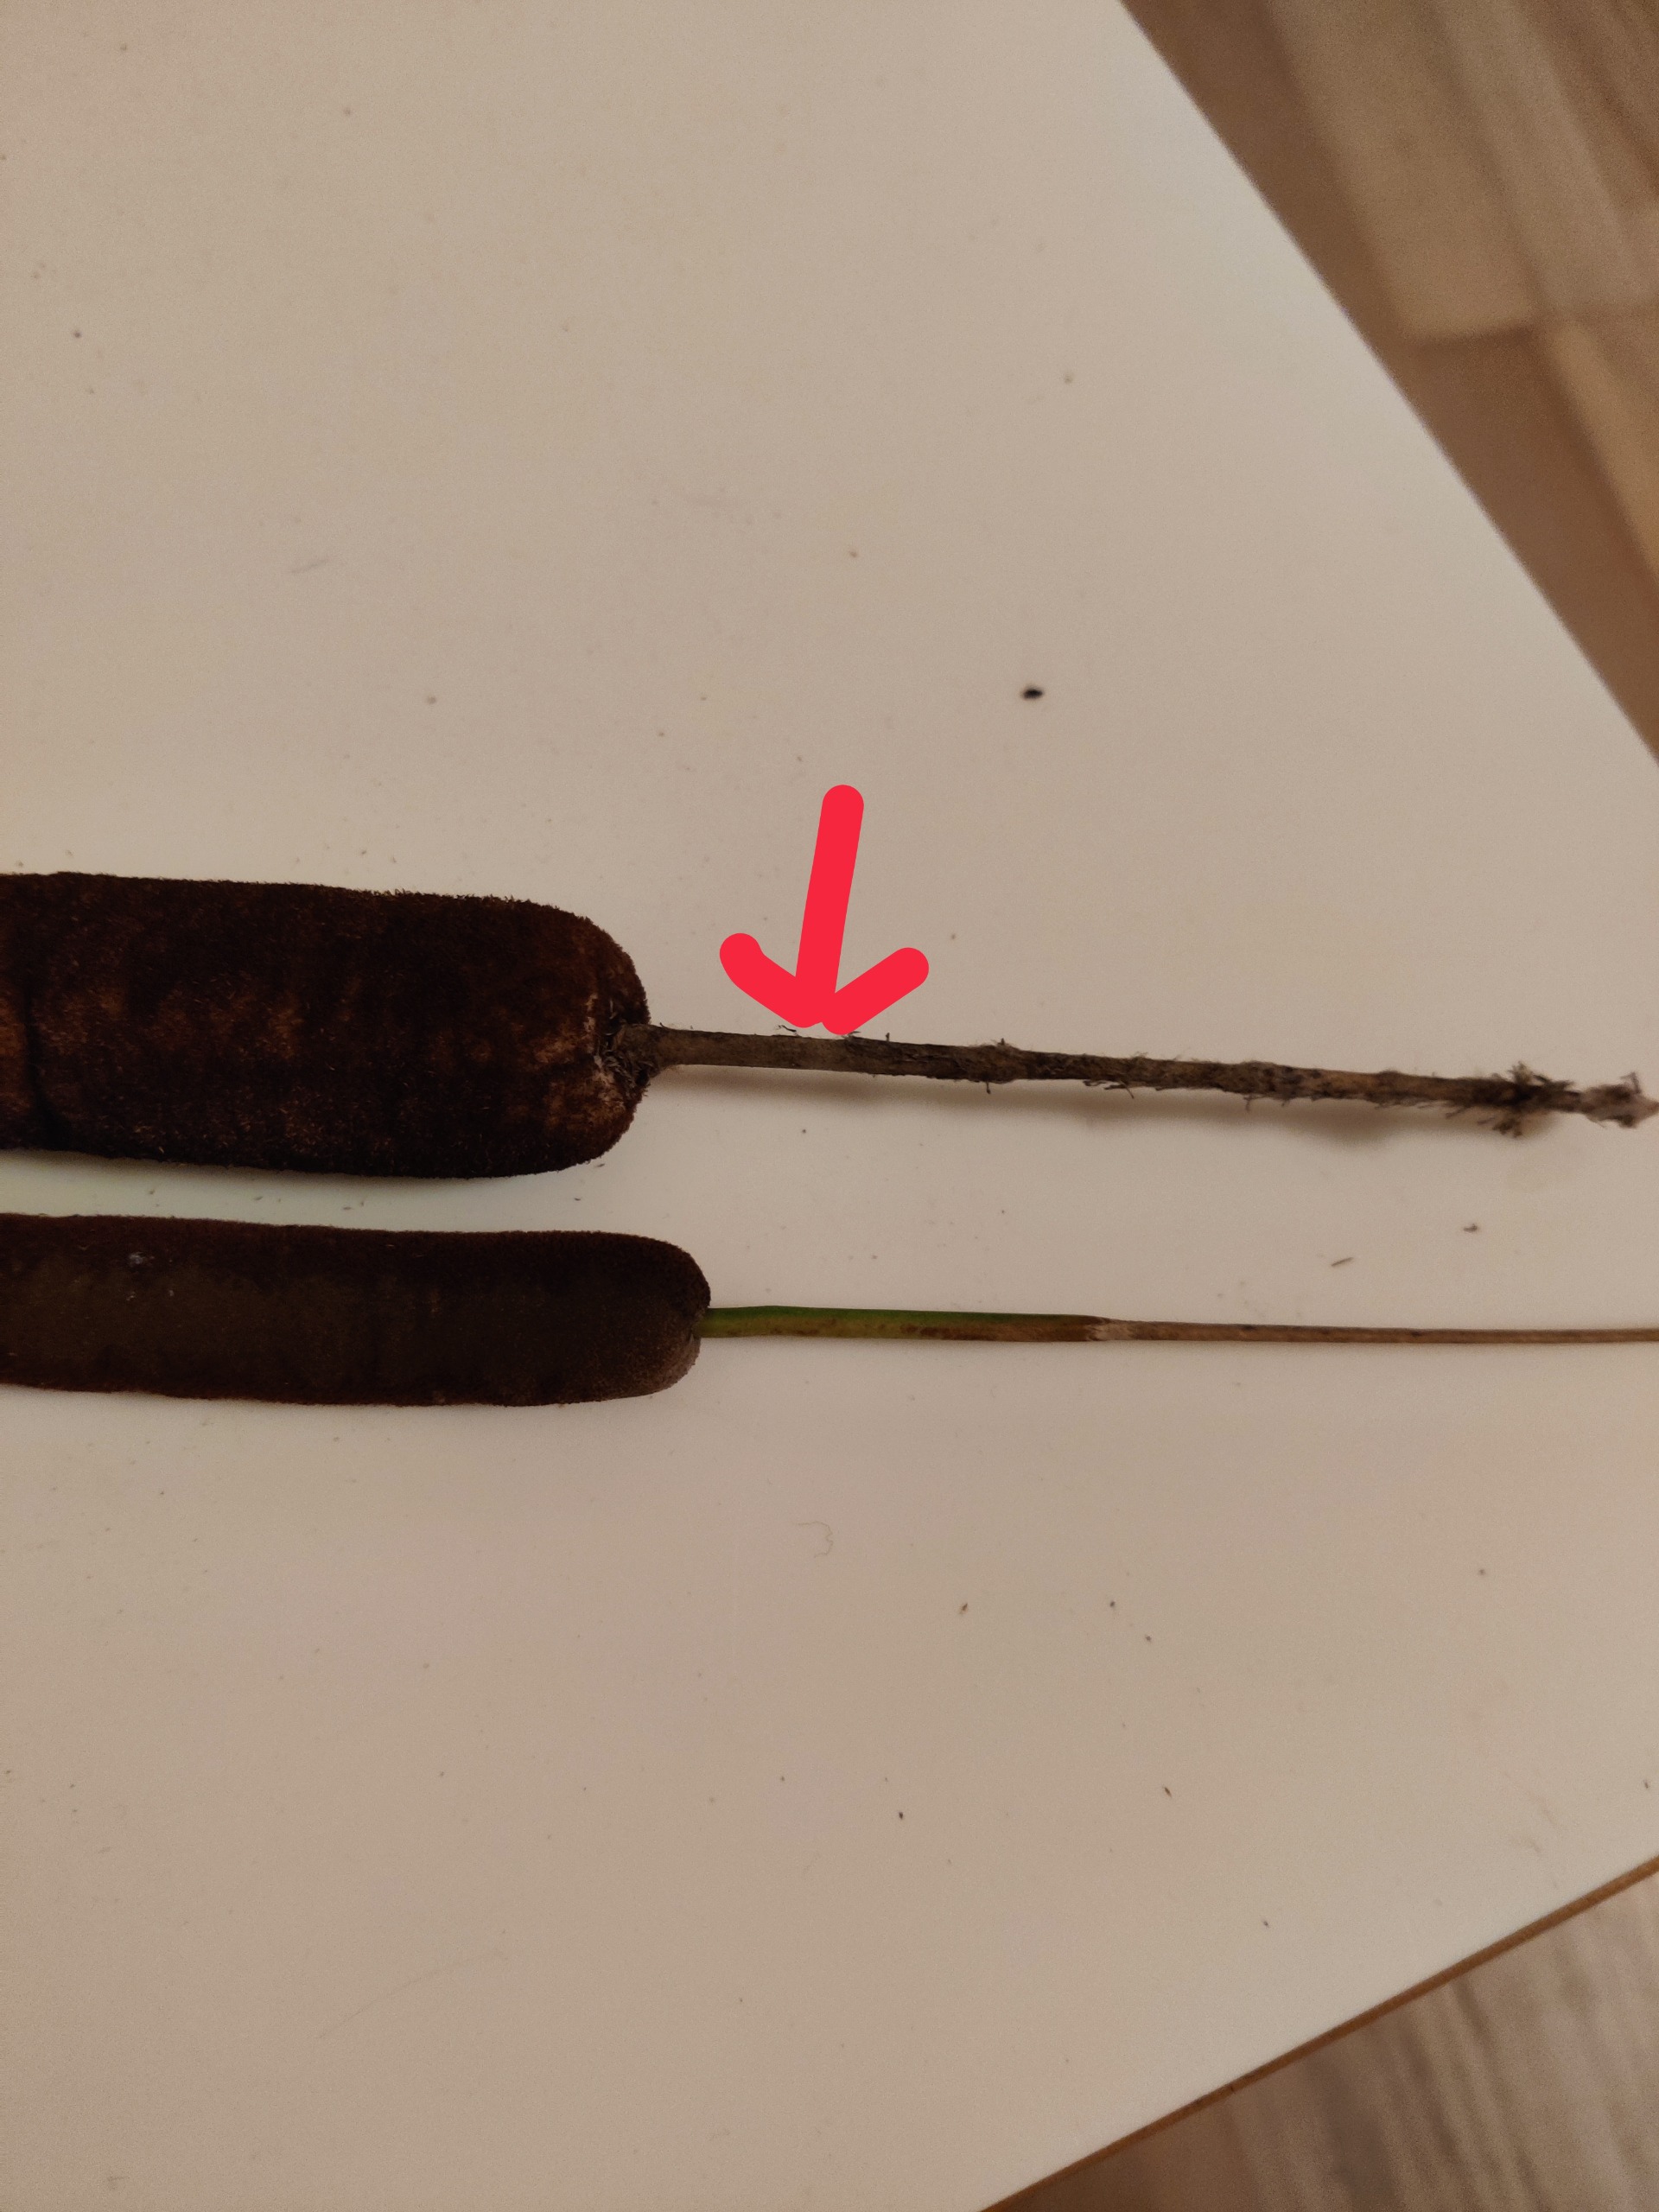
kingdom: Plantae
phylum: Tracheophyta
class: Liliopsida
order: Poales
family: Typhaceae
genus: Typha
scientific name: Typha latifolia
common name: Bredbladet dunhammer
